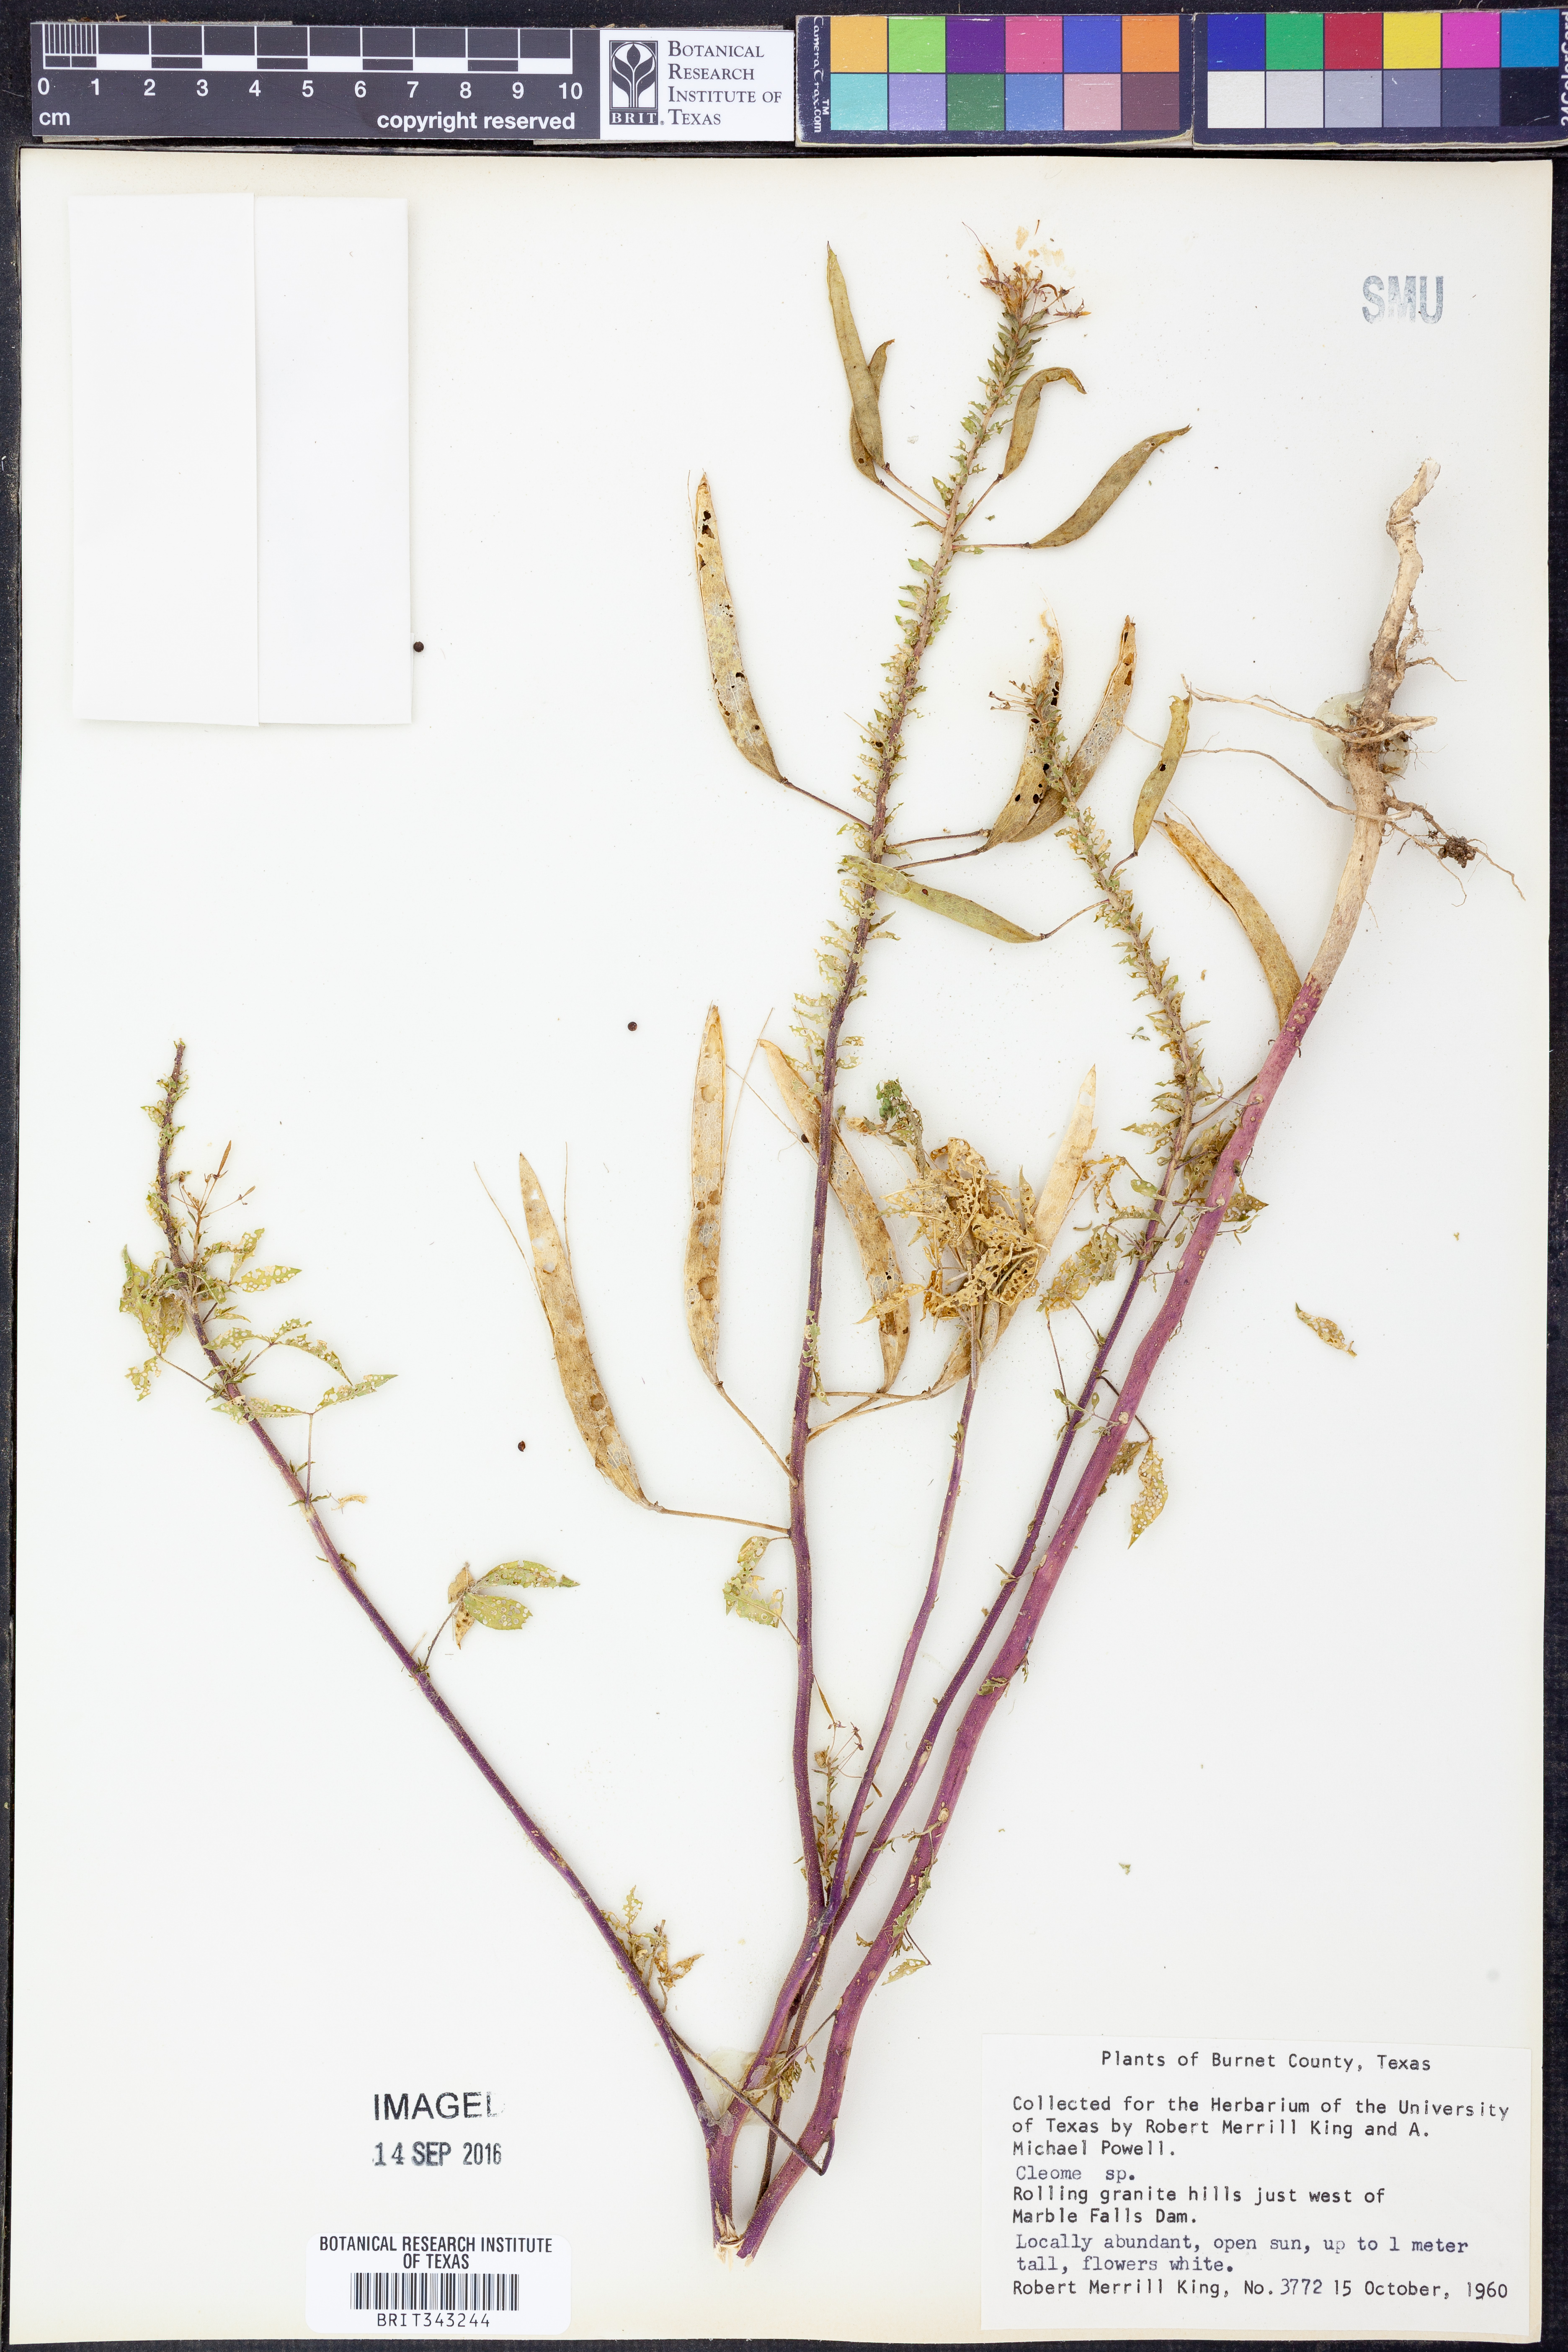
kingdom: Plantae
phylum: Tracheophyta
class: Magnoliopsida
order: Brassicales
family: Cleomaceae
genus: Cleome
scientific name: Cleome
